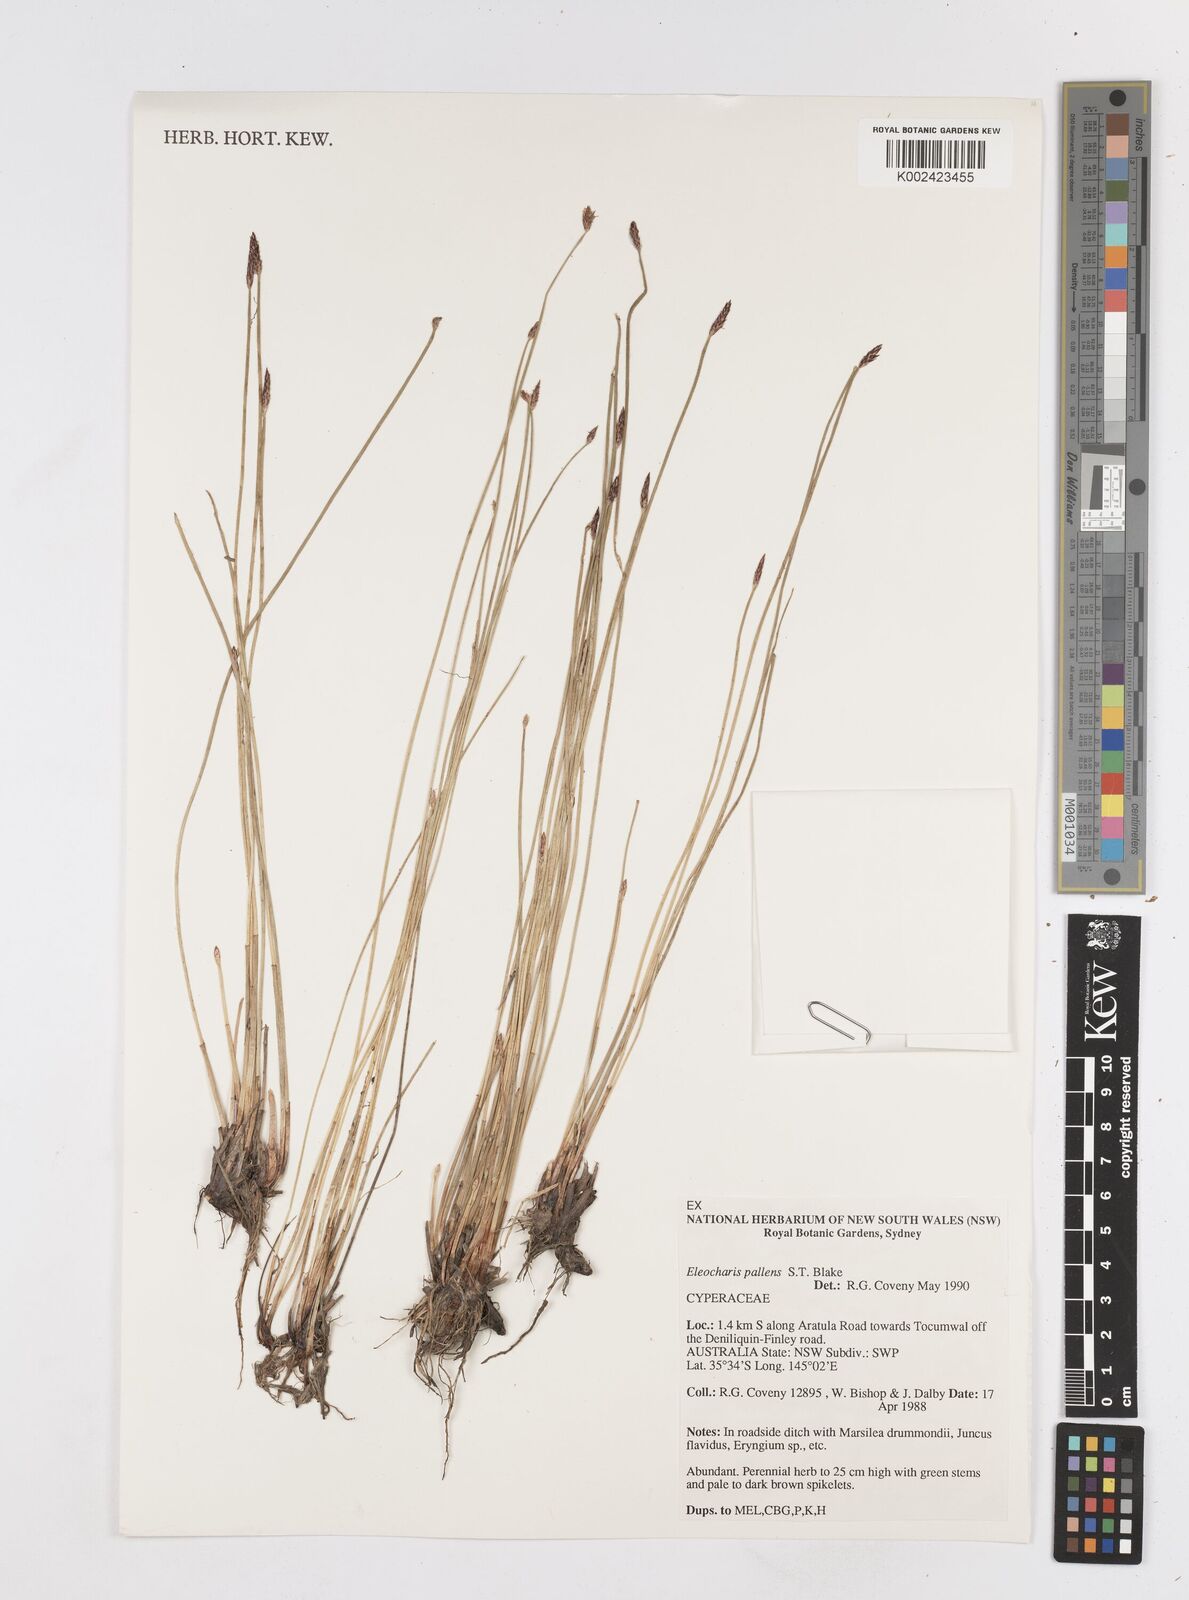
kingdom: Plantae
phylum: Tracheophyta
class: Liliopsida
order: Poales
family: Cyperaceae
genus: Eleocharis
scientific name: Eleocharis acuta
